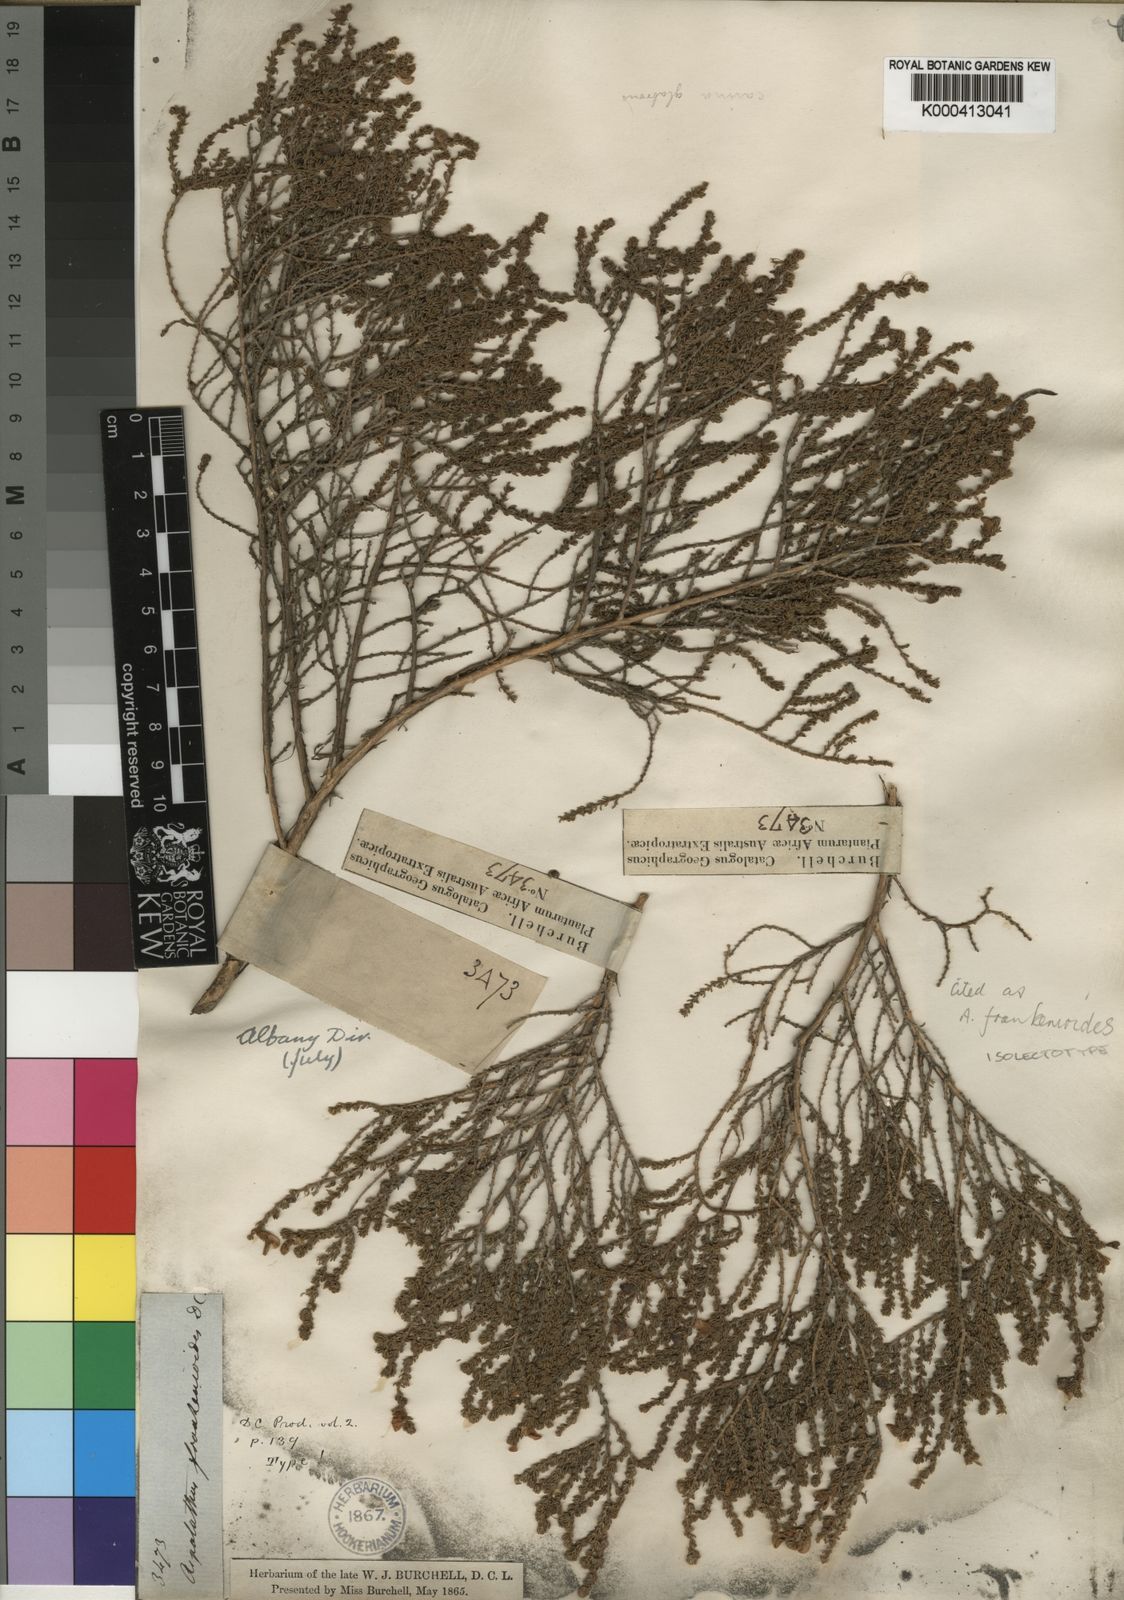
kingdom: Plantae
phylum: Tracheophyta
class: Magnoliopsida
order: Fabales
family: Fabaceae
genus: Aspalathus
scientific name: Aspalathus frankenioides
